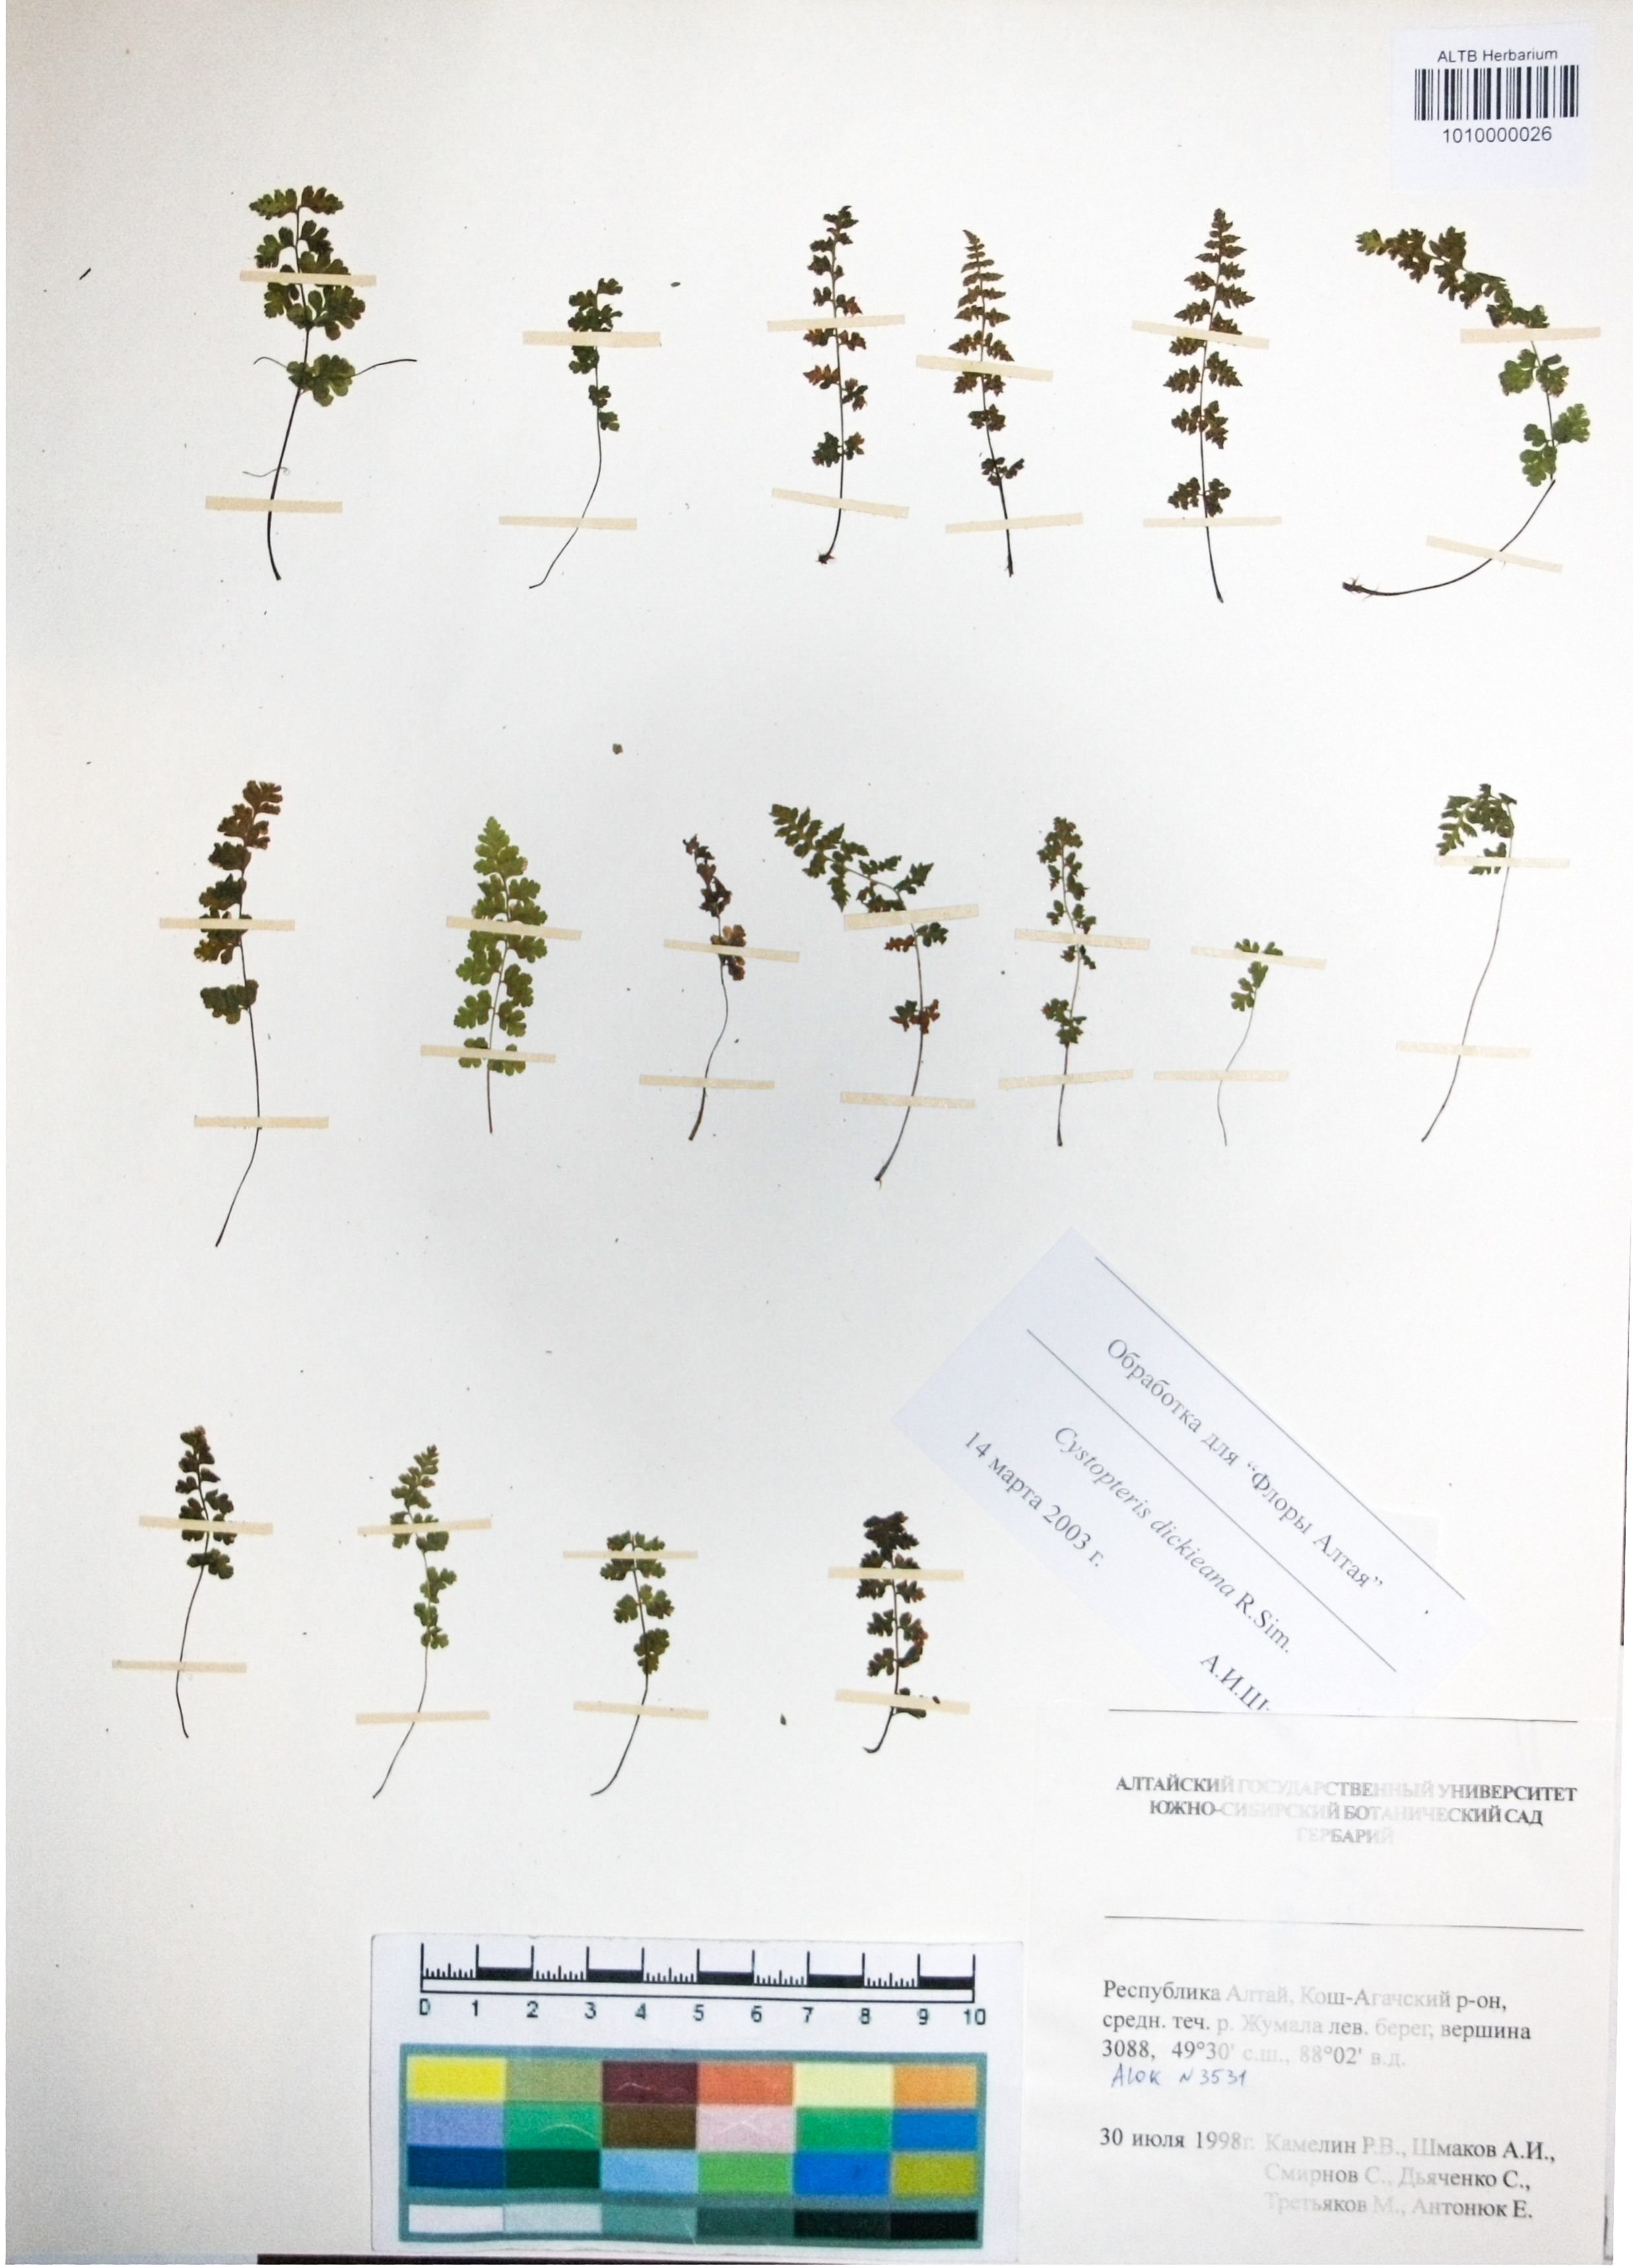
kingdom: Plantae
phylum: Tracheophyta
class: Polypodiopsida
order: Polypodiales
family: Cystopteridaceae
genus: Cystopteris
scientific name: Cystopteris dickieana
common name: Dickie's bladder-fern
